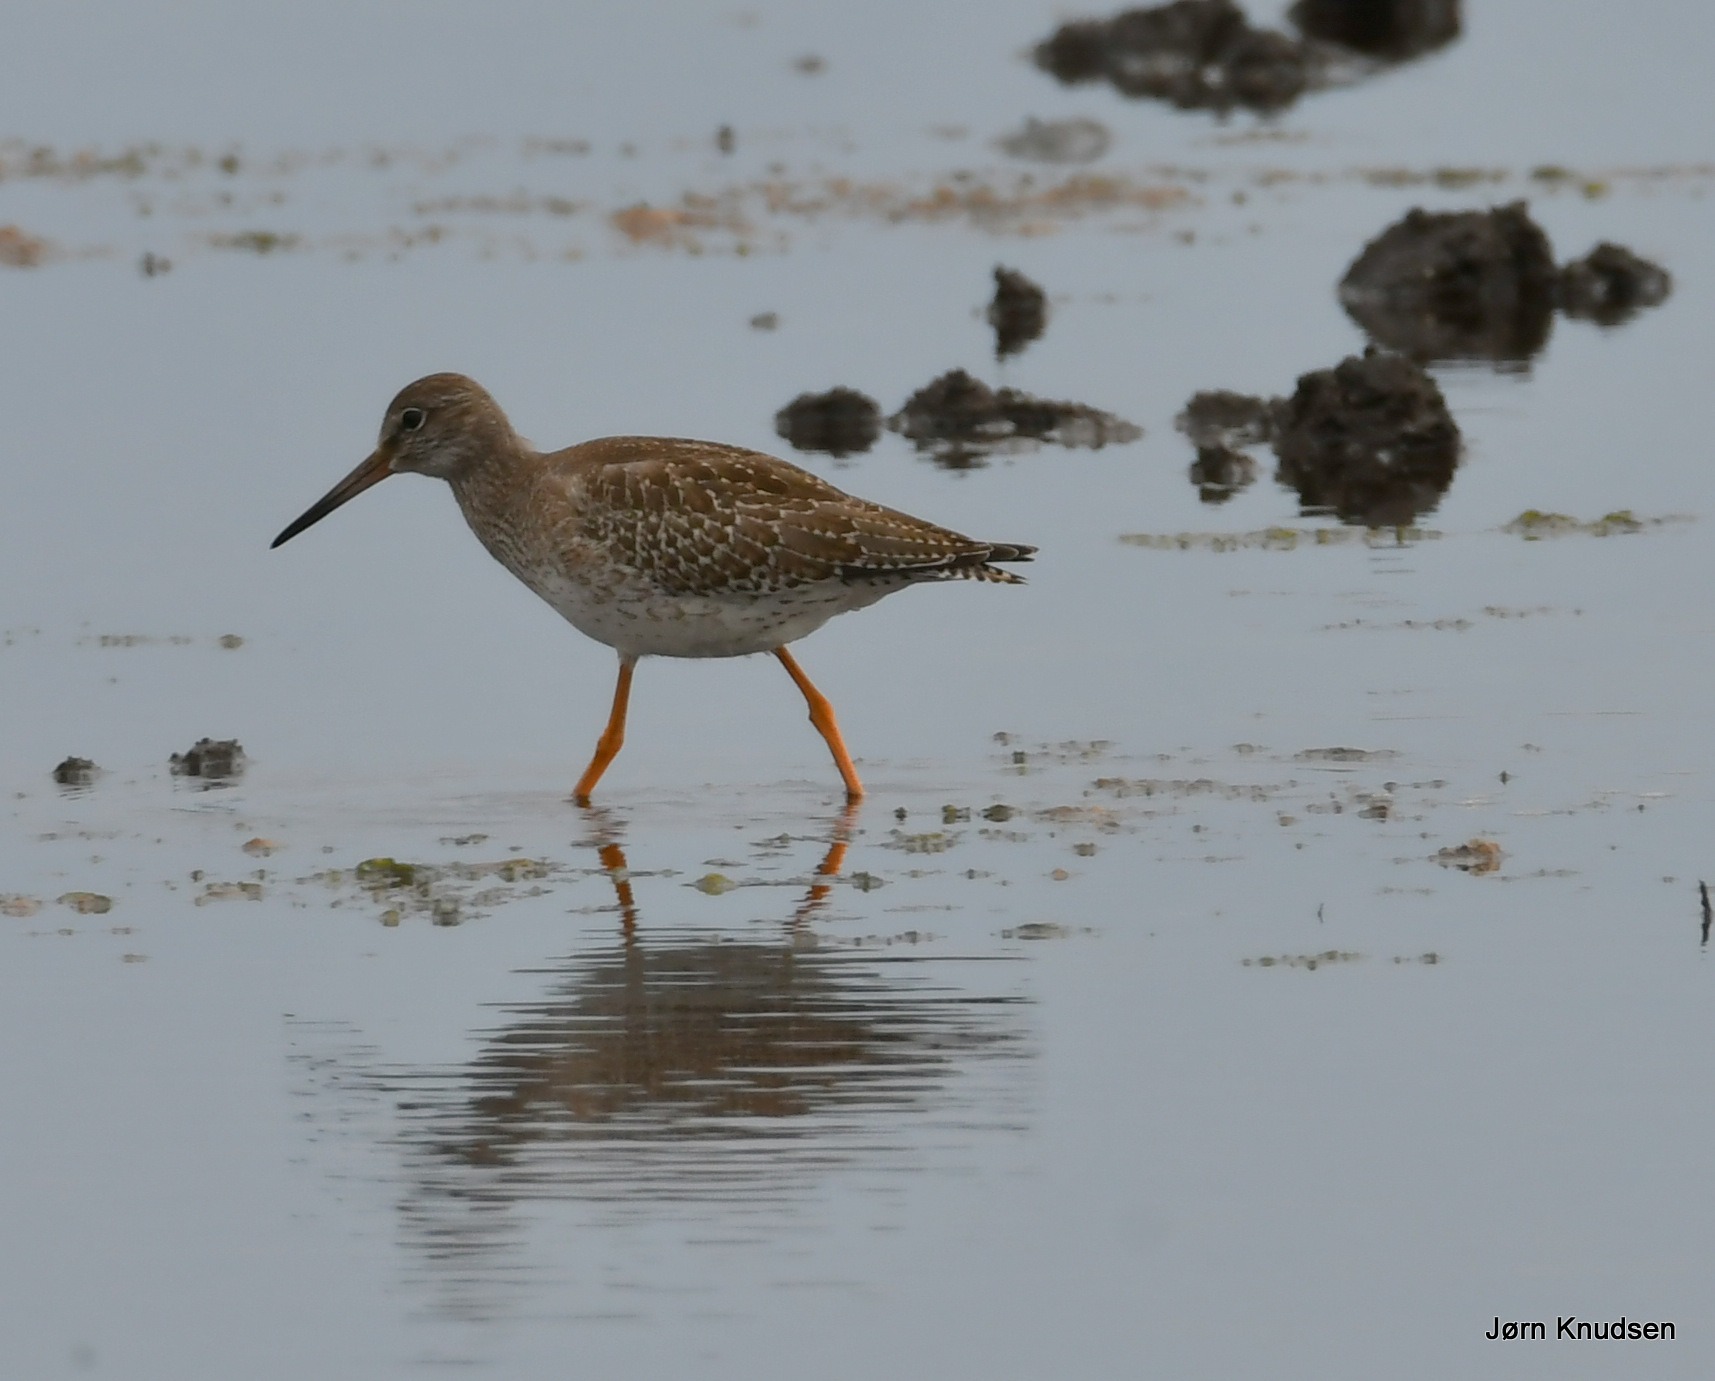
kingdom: Animalia
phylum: Chordata
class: Aves
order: Charadriiformes
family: Scolopacidae
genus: Tringa
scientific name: Tringa totanus
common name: Rødben
